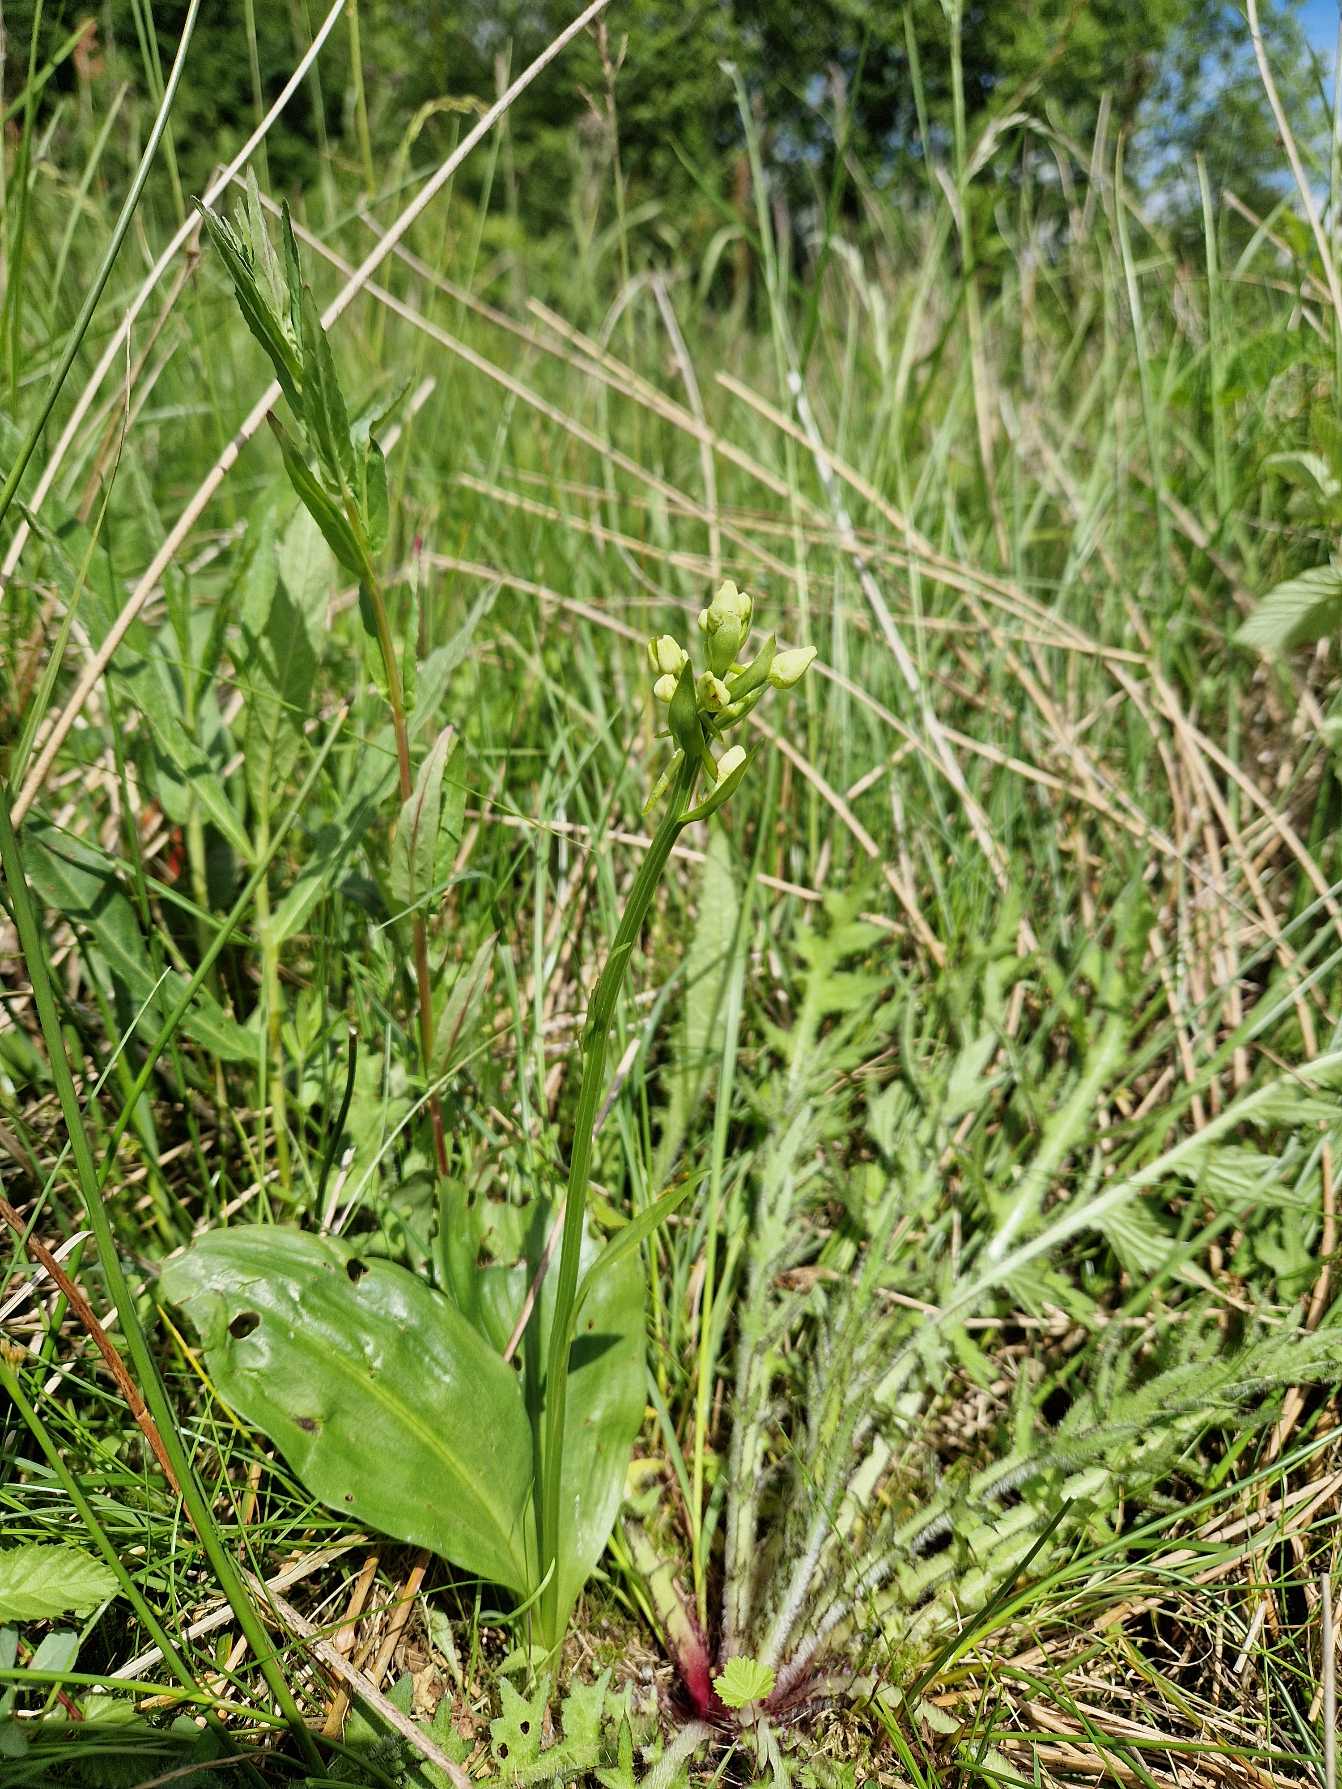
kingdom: Plantae
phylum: Tracheophyta
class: Liliopsida
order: Asparagales
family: Orchidaceae
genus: Platanthera
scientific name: Platanthera bifolia
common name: Bakke-gøgelilje
